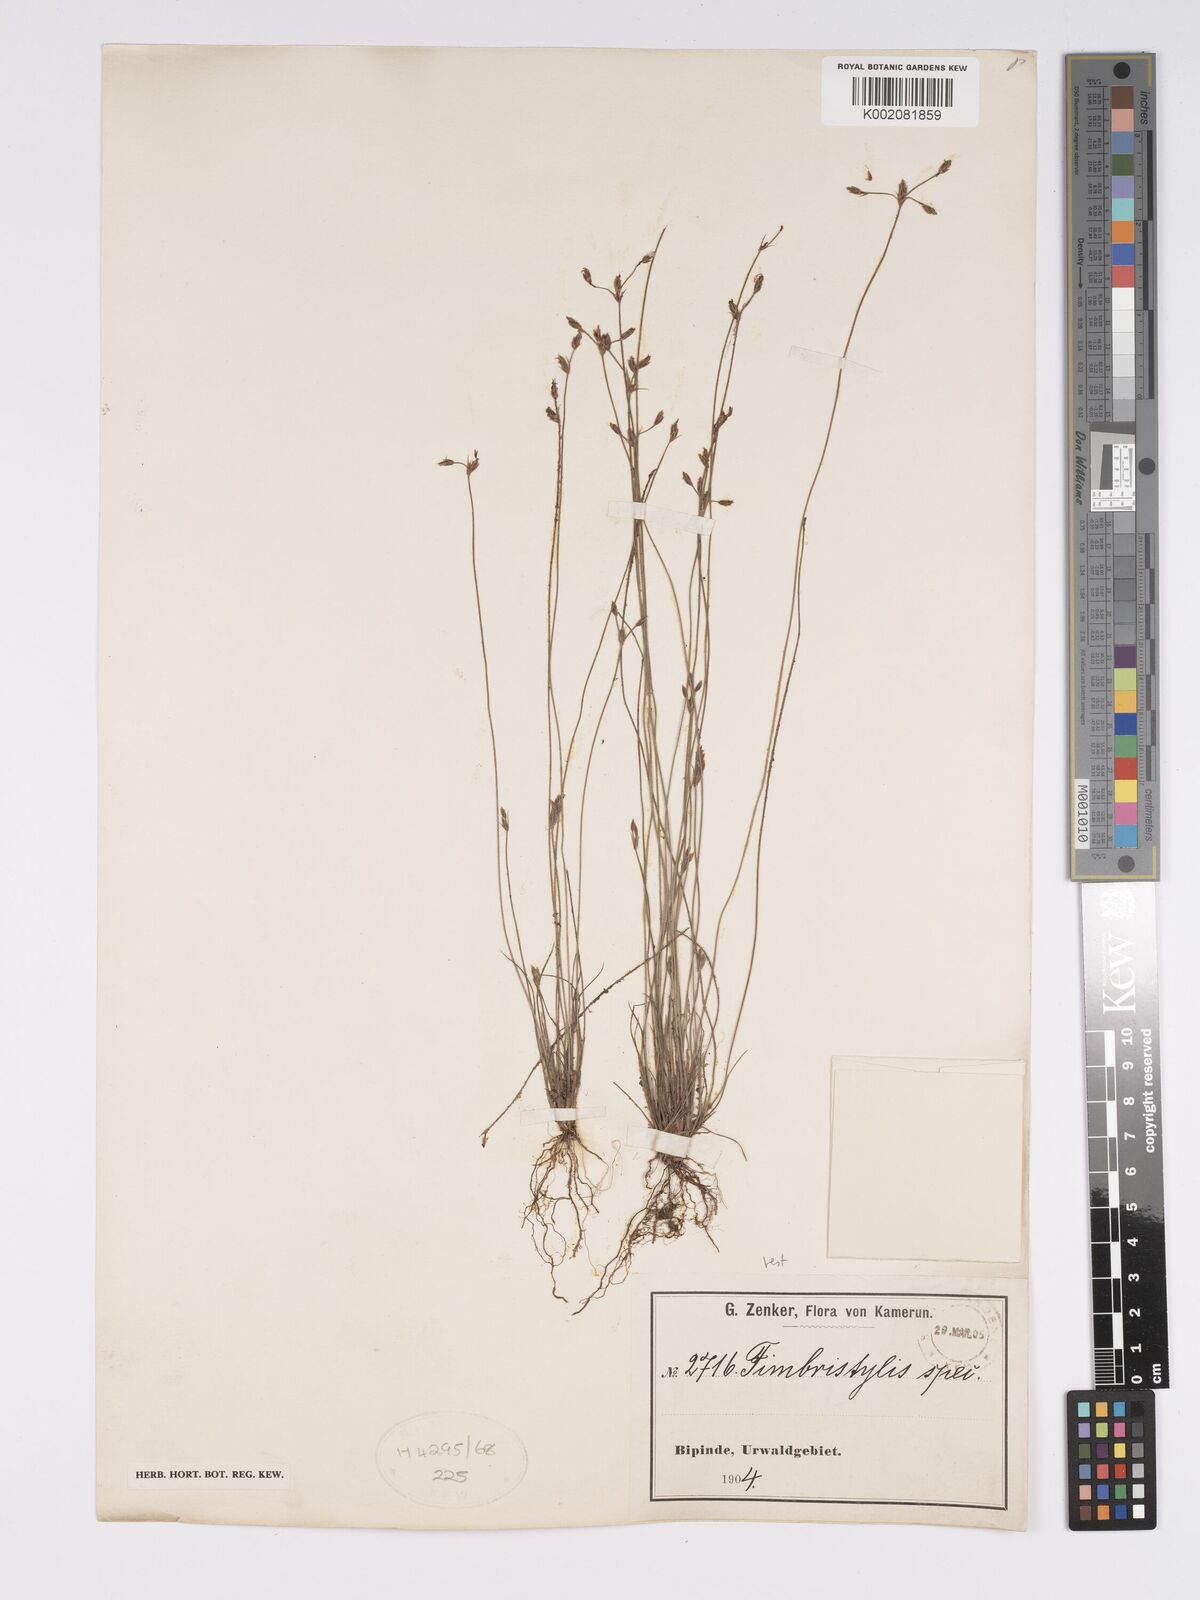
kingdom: Plantae
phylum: Tracheophyta
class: Liliopsida
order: Poales
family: Cyperaceae
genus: Bulbostylis
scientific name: Bulbostylis hispidula
